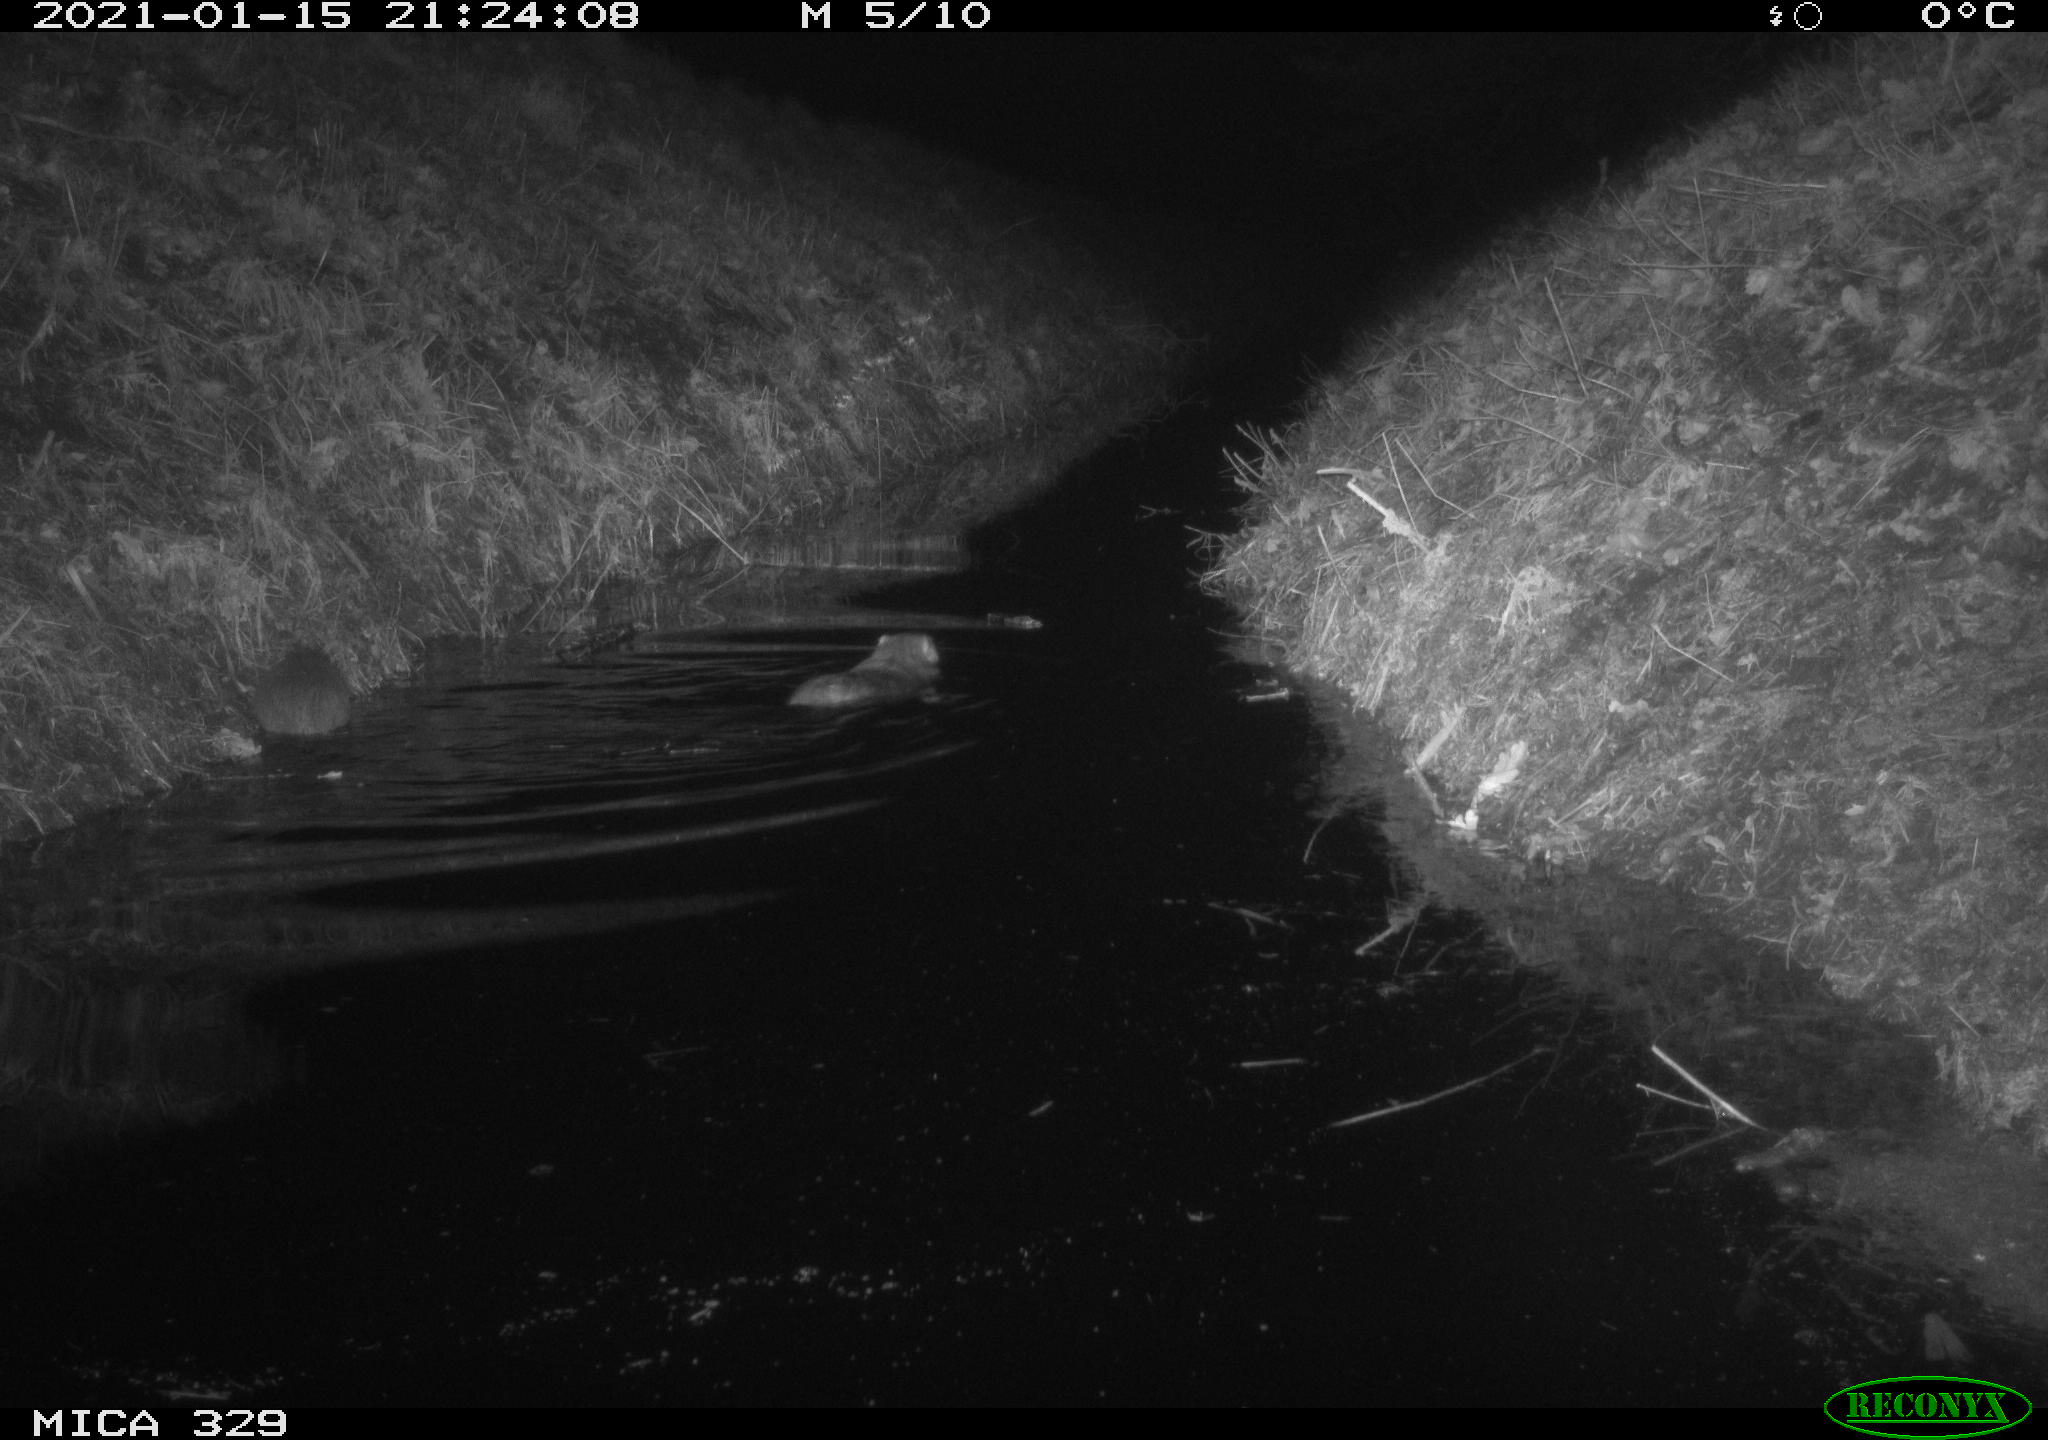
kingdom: Animalia
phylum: Chordata
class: Mammalia
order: Rodentia
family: Myocastoridae
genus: Myocastor
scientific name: Myocastor coypus
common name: Coypu
